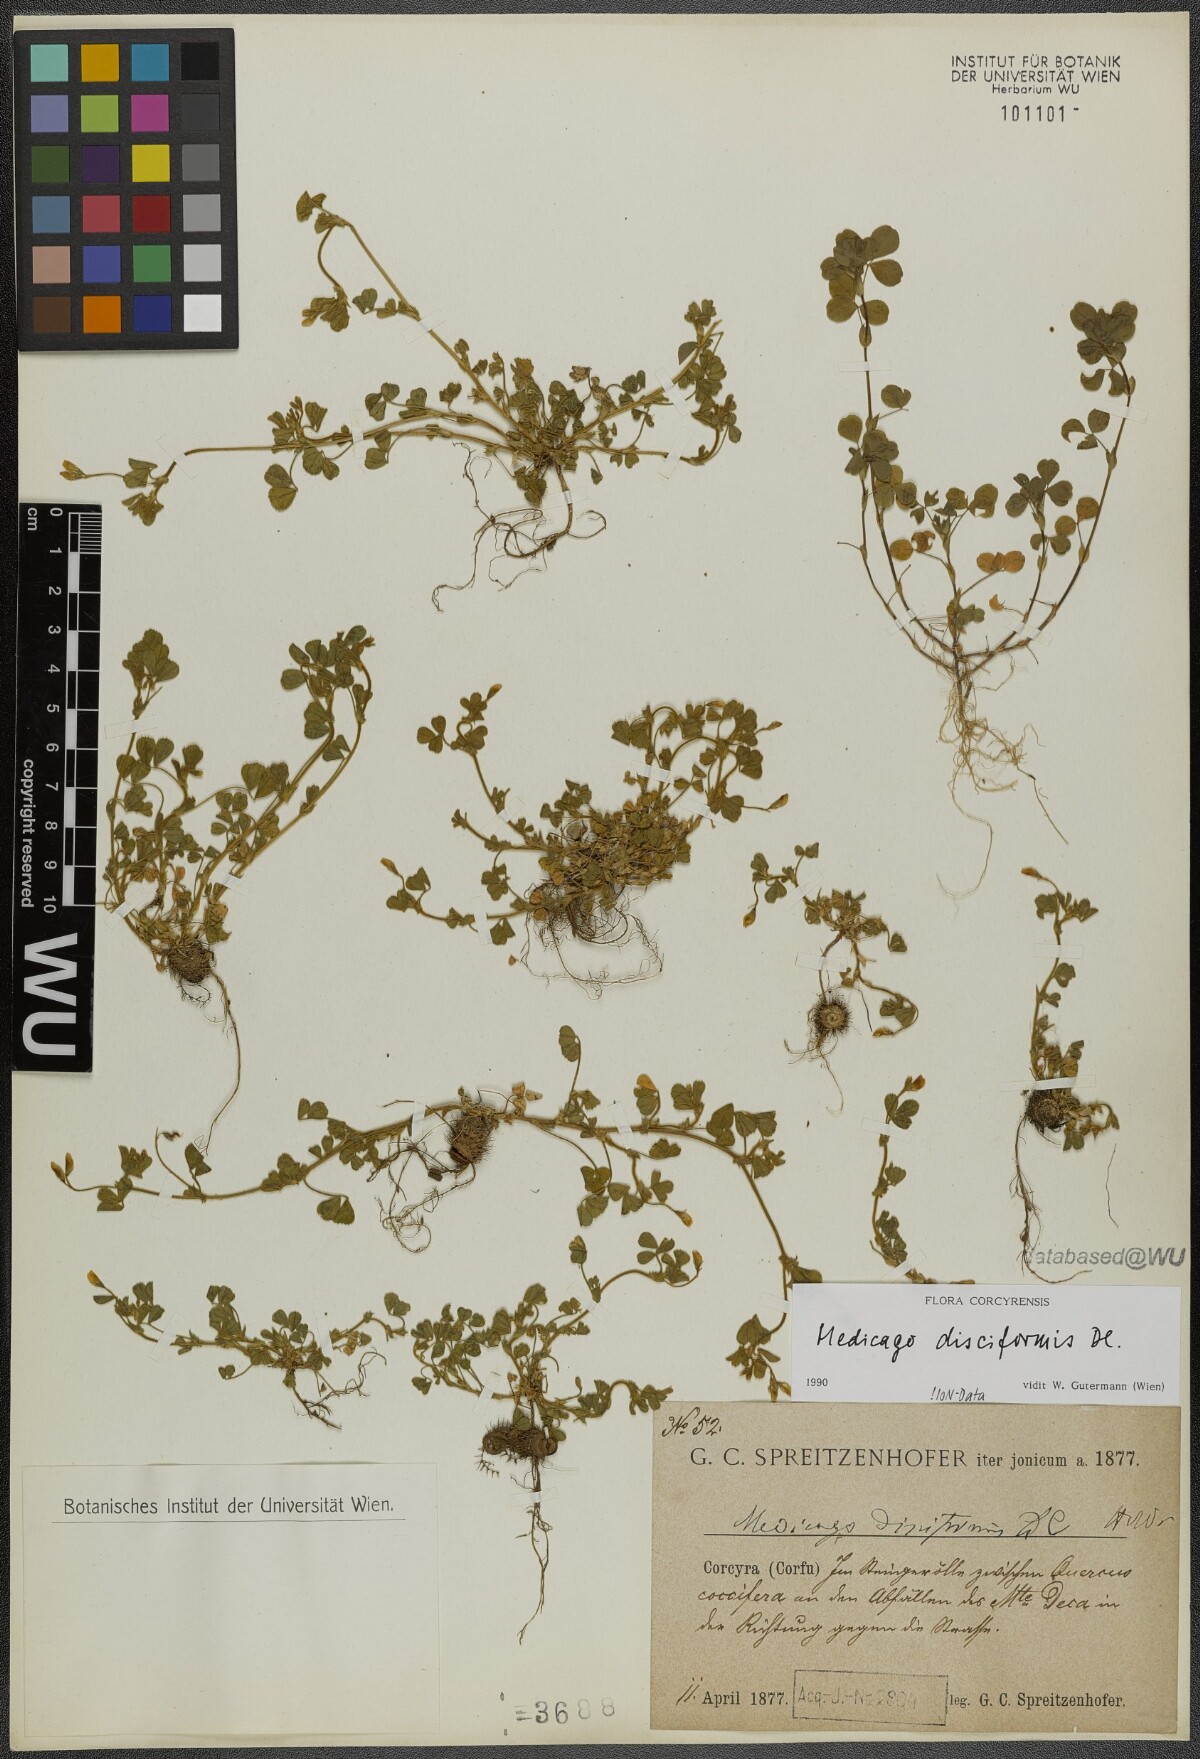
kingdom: Plantae
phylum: Tracheophyta
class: Magnoliopsida
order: Fabales
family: Fabaceae
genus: Medicago
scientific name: Medicago disciformis
